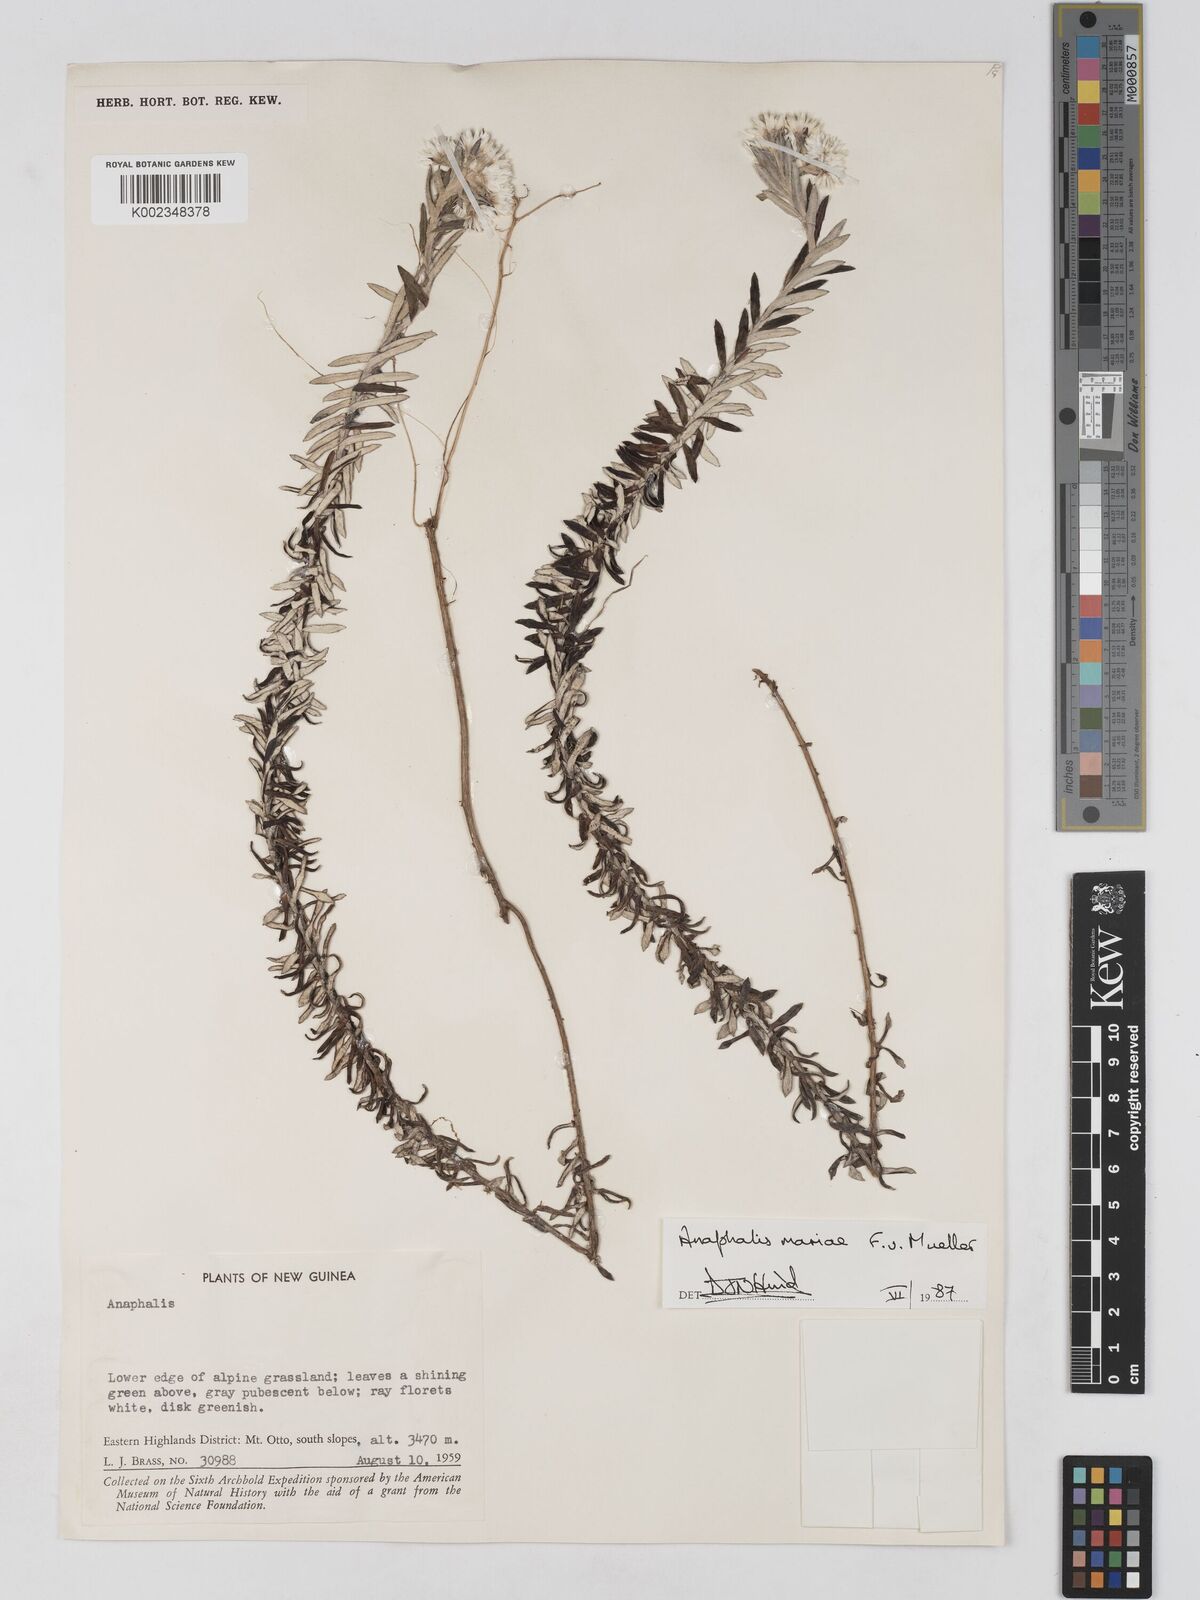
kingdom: Plantae
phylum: Tracheophyta
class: Magnoliopsida
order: Asterales
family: Asteraceae
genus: Anaphalioides
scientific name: Anaphalioides mariae
